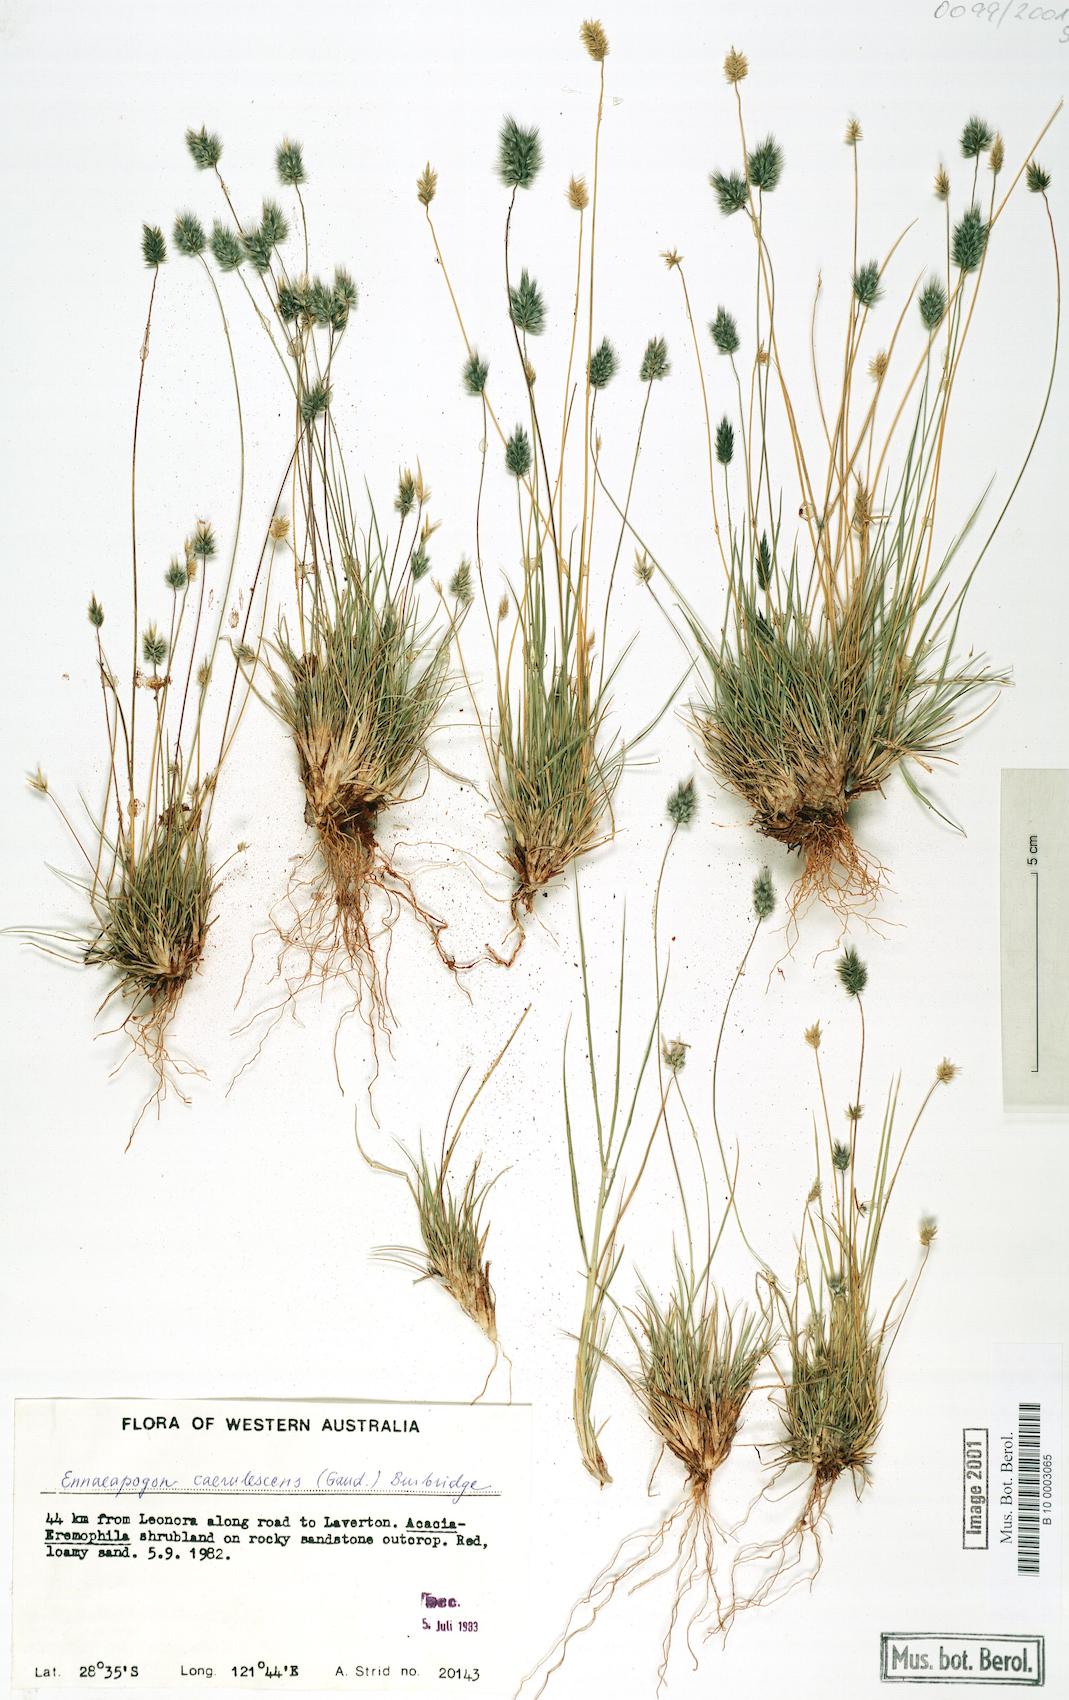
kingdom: Plantae
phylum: Tracheophyta
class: Liliopsida
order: Poales
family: Poaceae
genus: Enneapogon
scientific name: Enneapogon caerulescens
